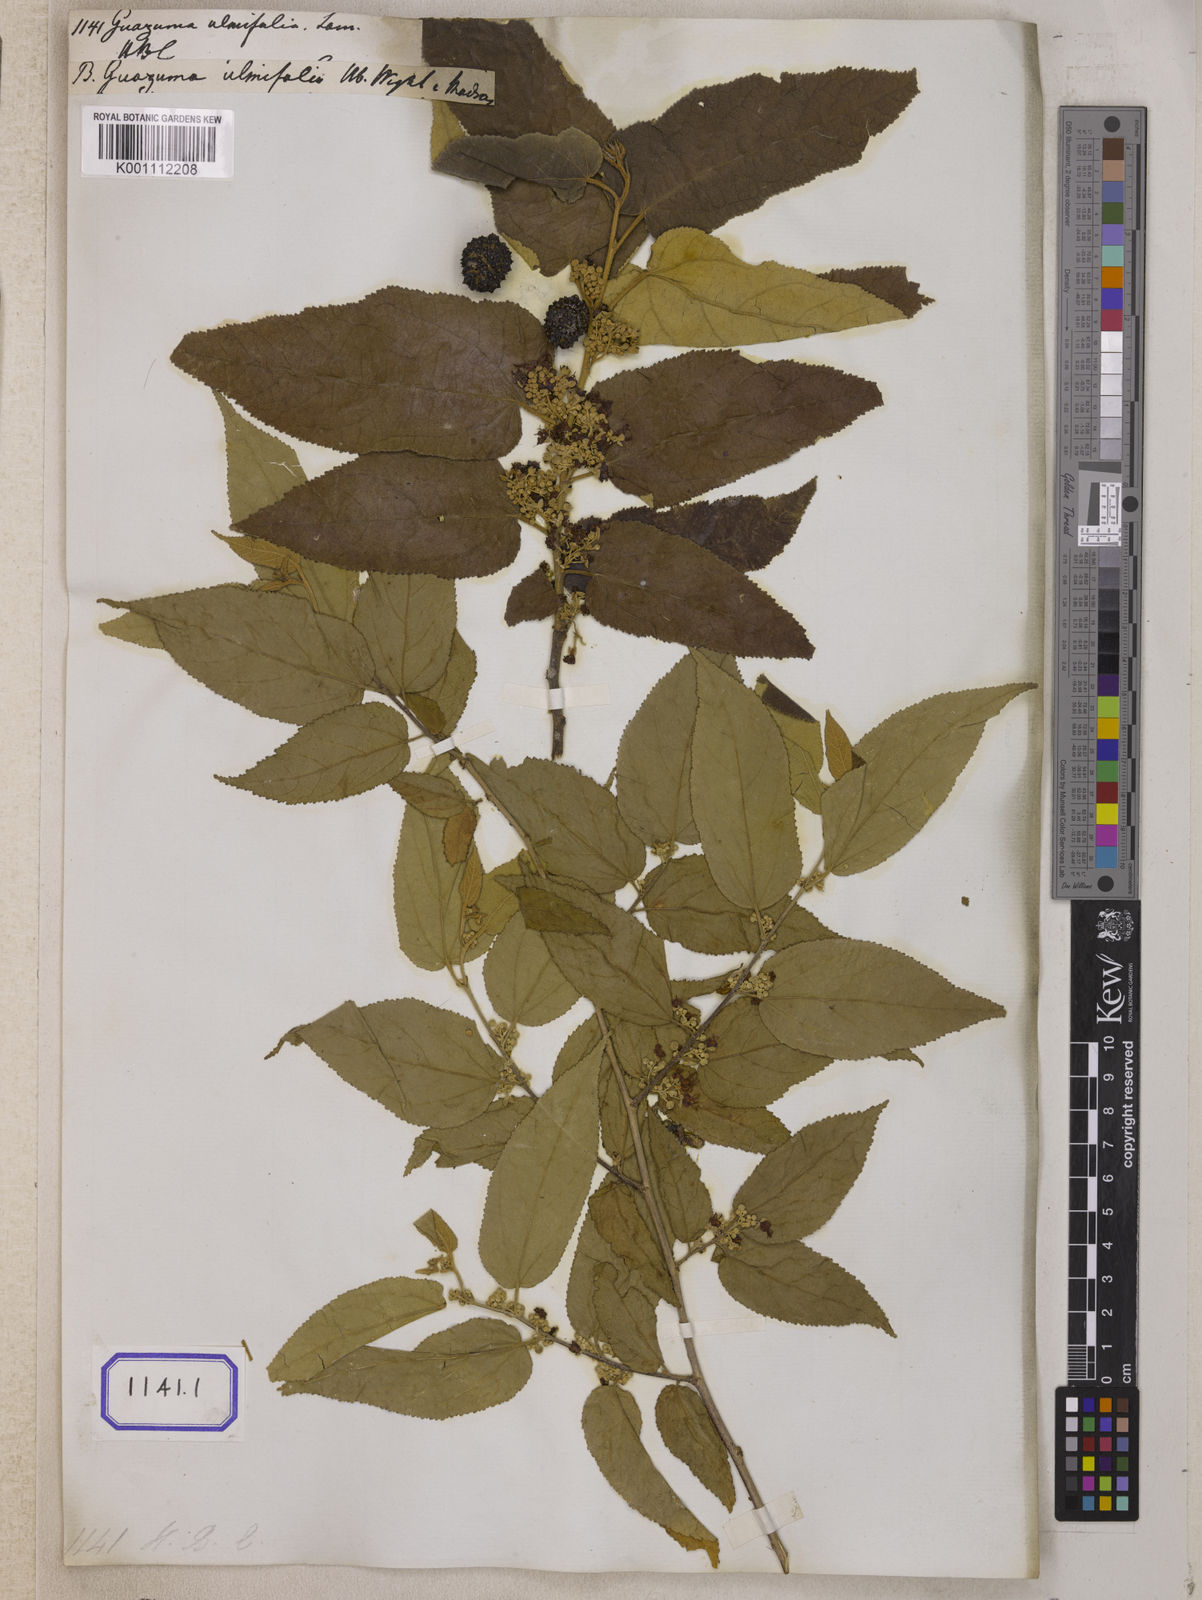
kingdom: Plantae
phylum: Tracheophyta
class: Magnoliopsida
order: Malvales
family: Malvaceae
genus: Guazuma
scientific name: Guazuma ulmifolia
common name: Bastard-cedar
